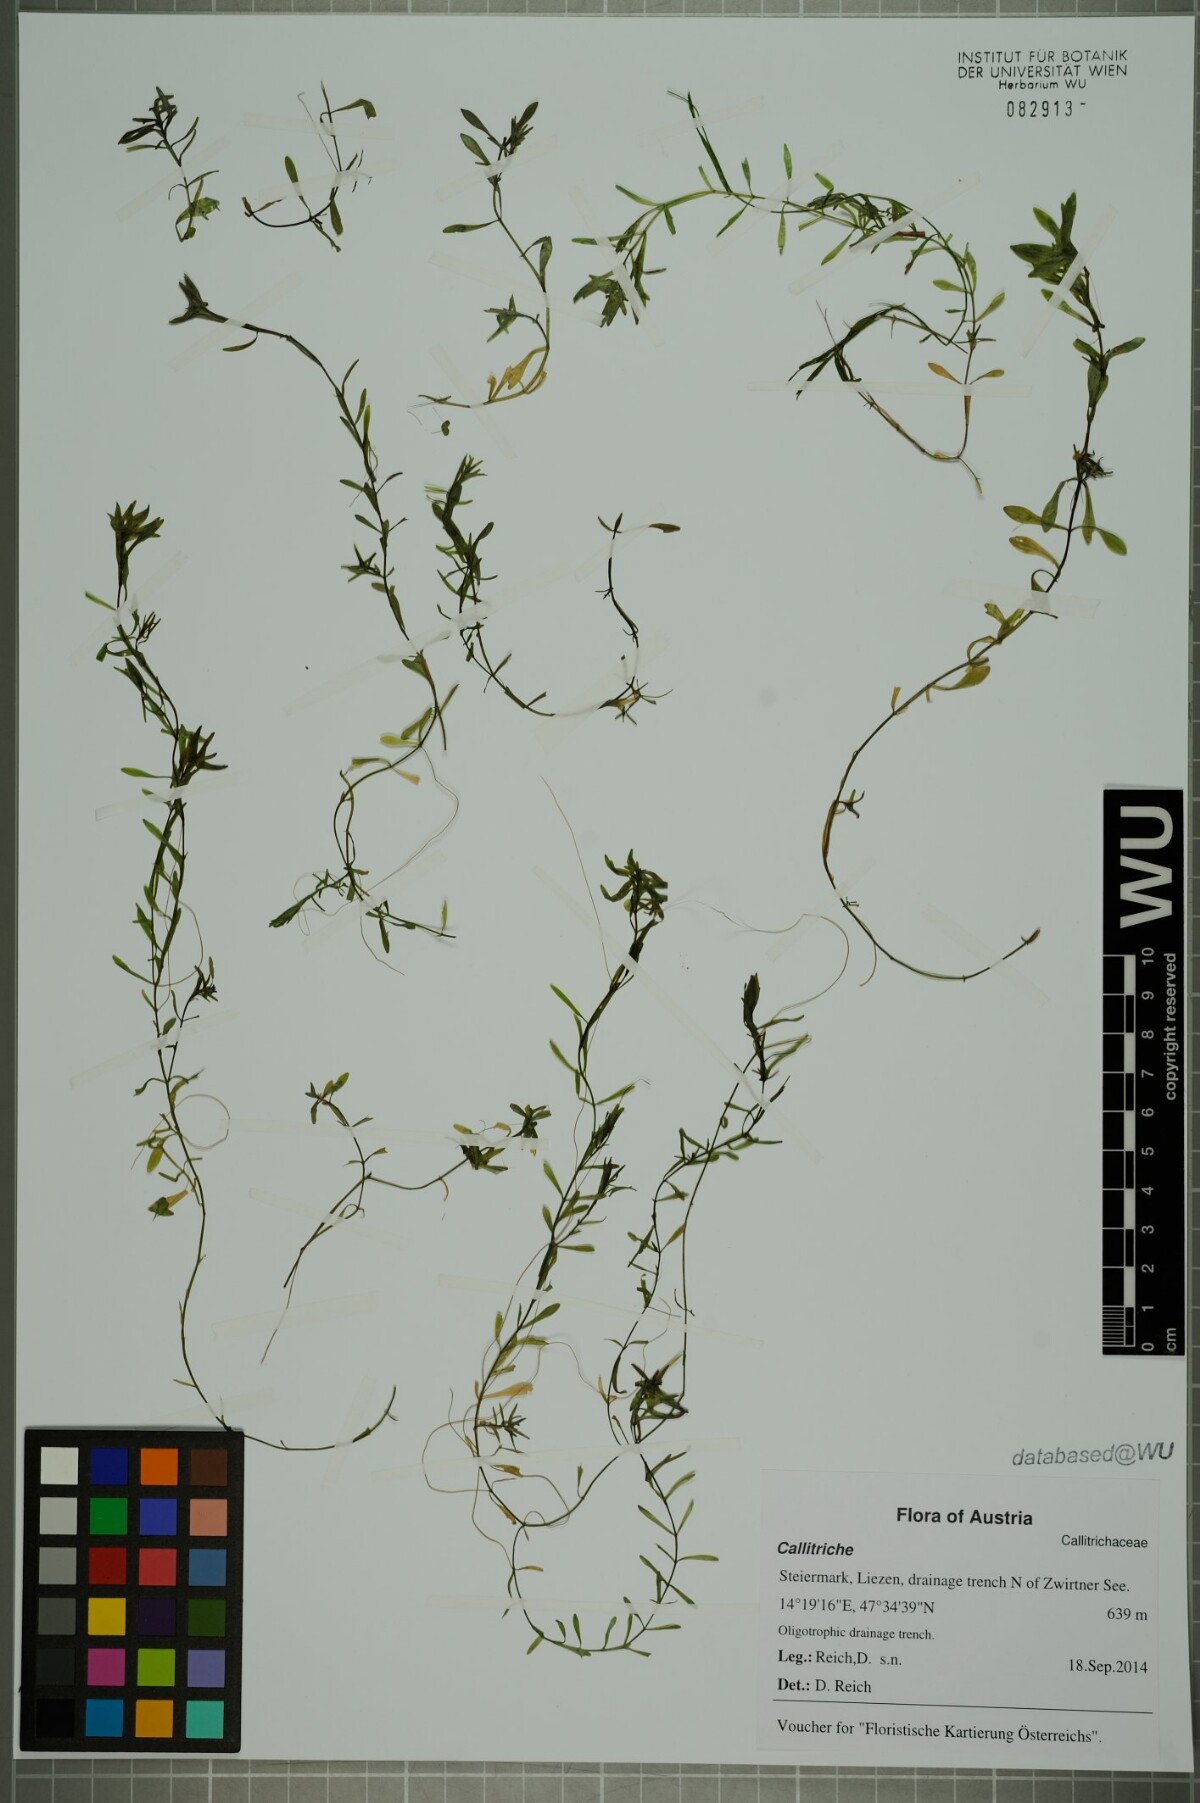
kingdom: Plantae
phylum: Tracheophyta
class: Magnoliopsida
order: Lamiales
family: Plantaginaceae
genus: Callitriche
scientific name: Callitriche
